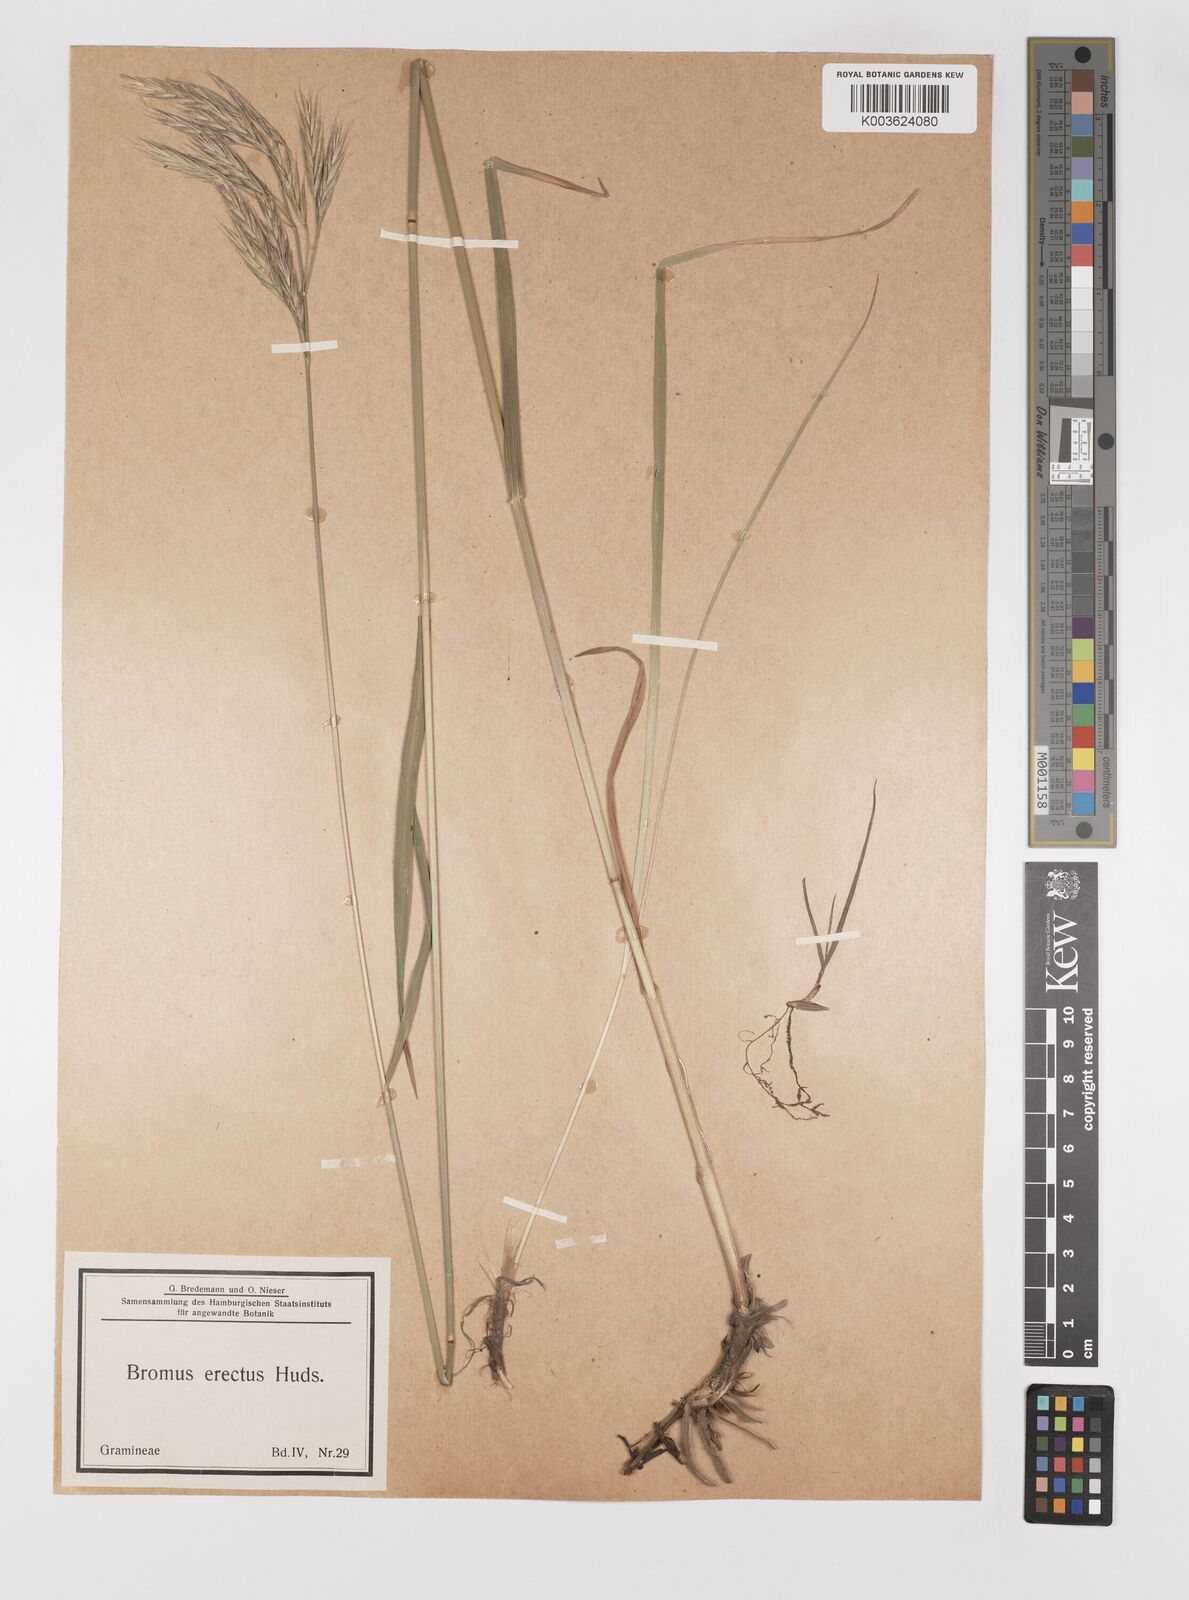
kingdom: Plantae
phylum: Tracheophyta
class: Liliopsida
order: Poales
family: Poaceae
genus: Bromus
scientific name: Bromus erectus
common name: Erect brome
